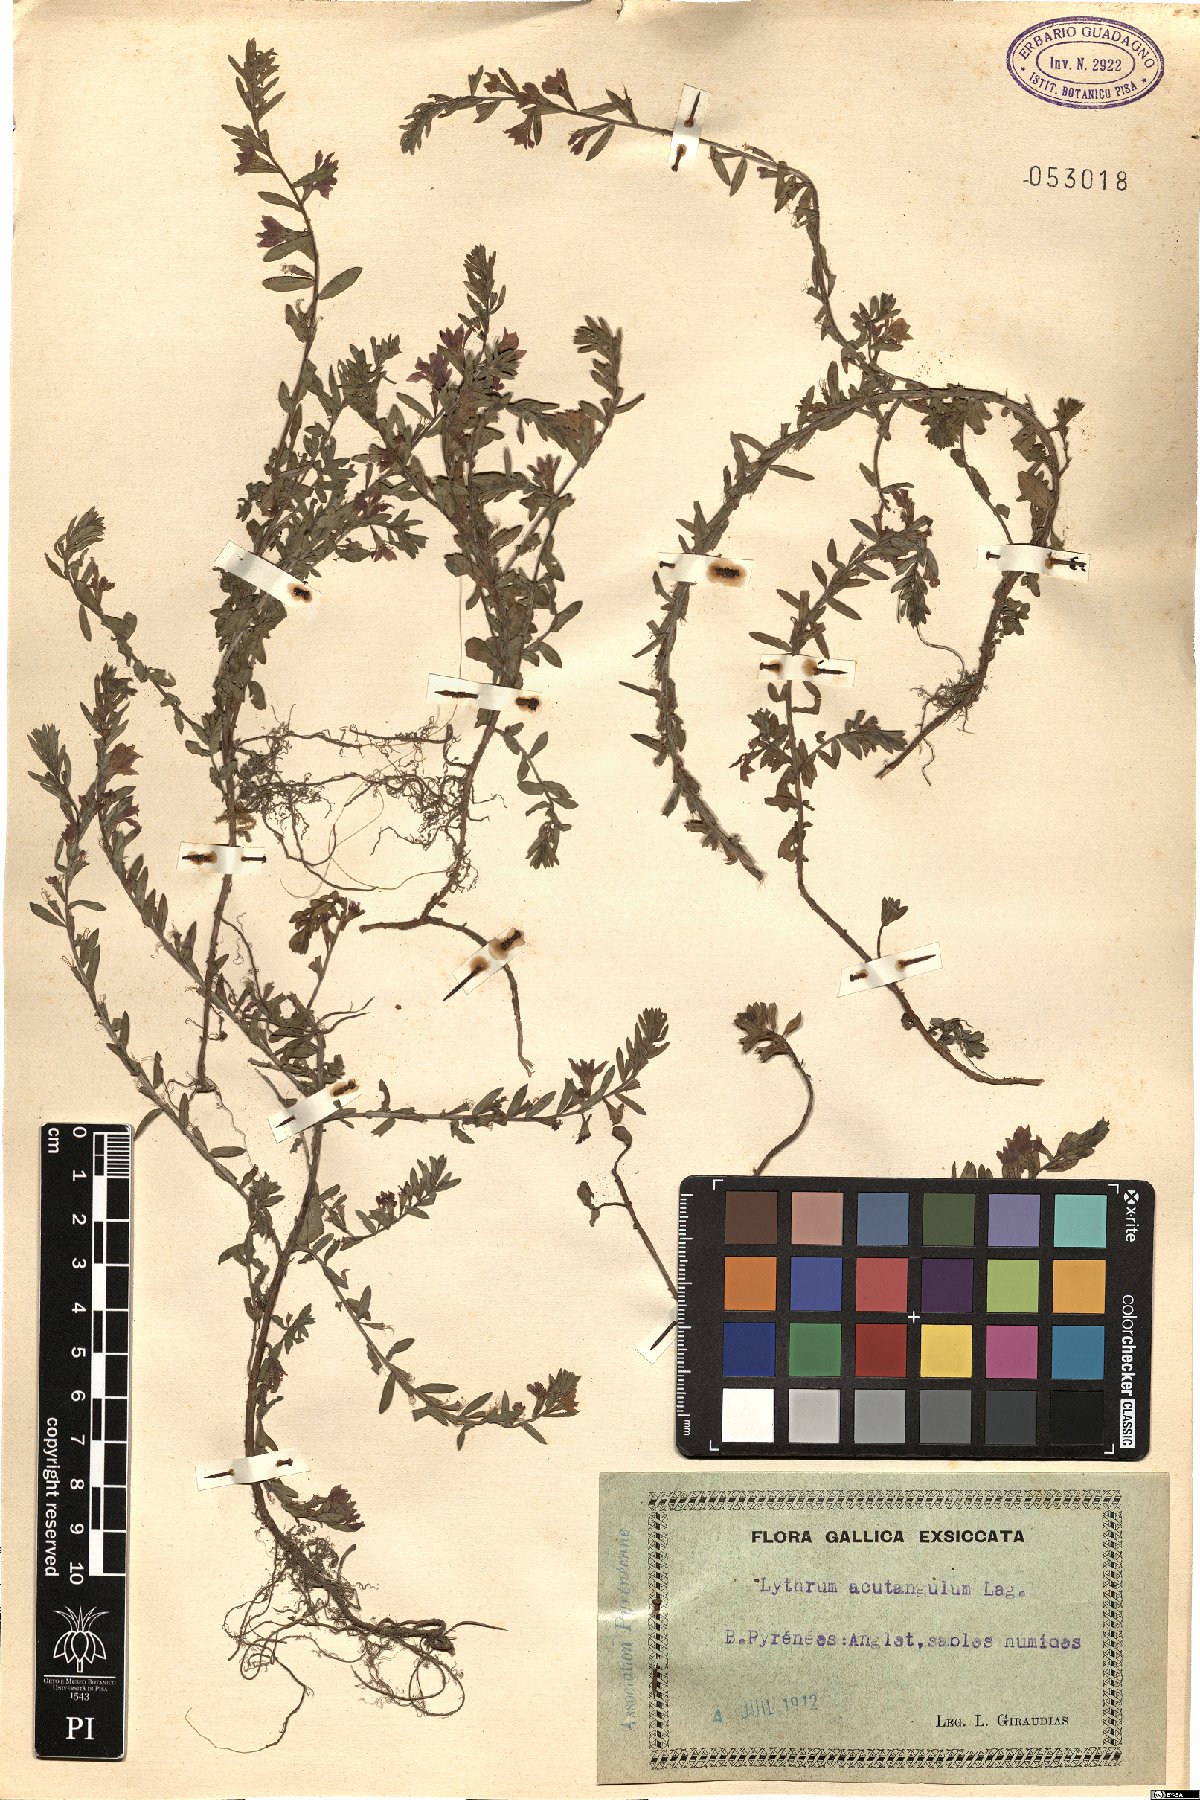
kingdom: Plantae
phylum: Tracheophyta
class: Magnoliopsida
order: Myrtales
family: Lythraceae
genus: Lythrum
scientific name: Lythrum acutangulum
